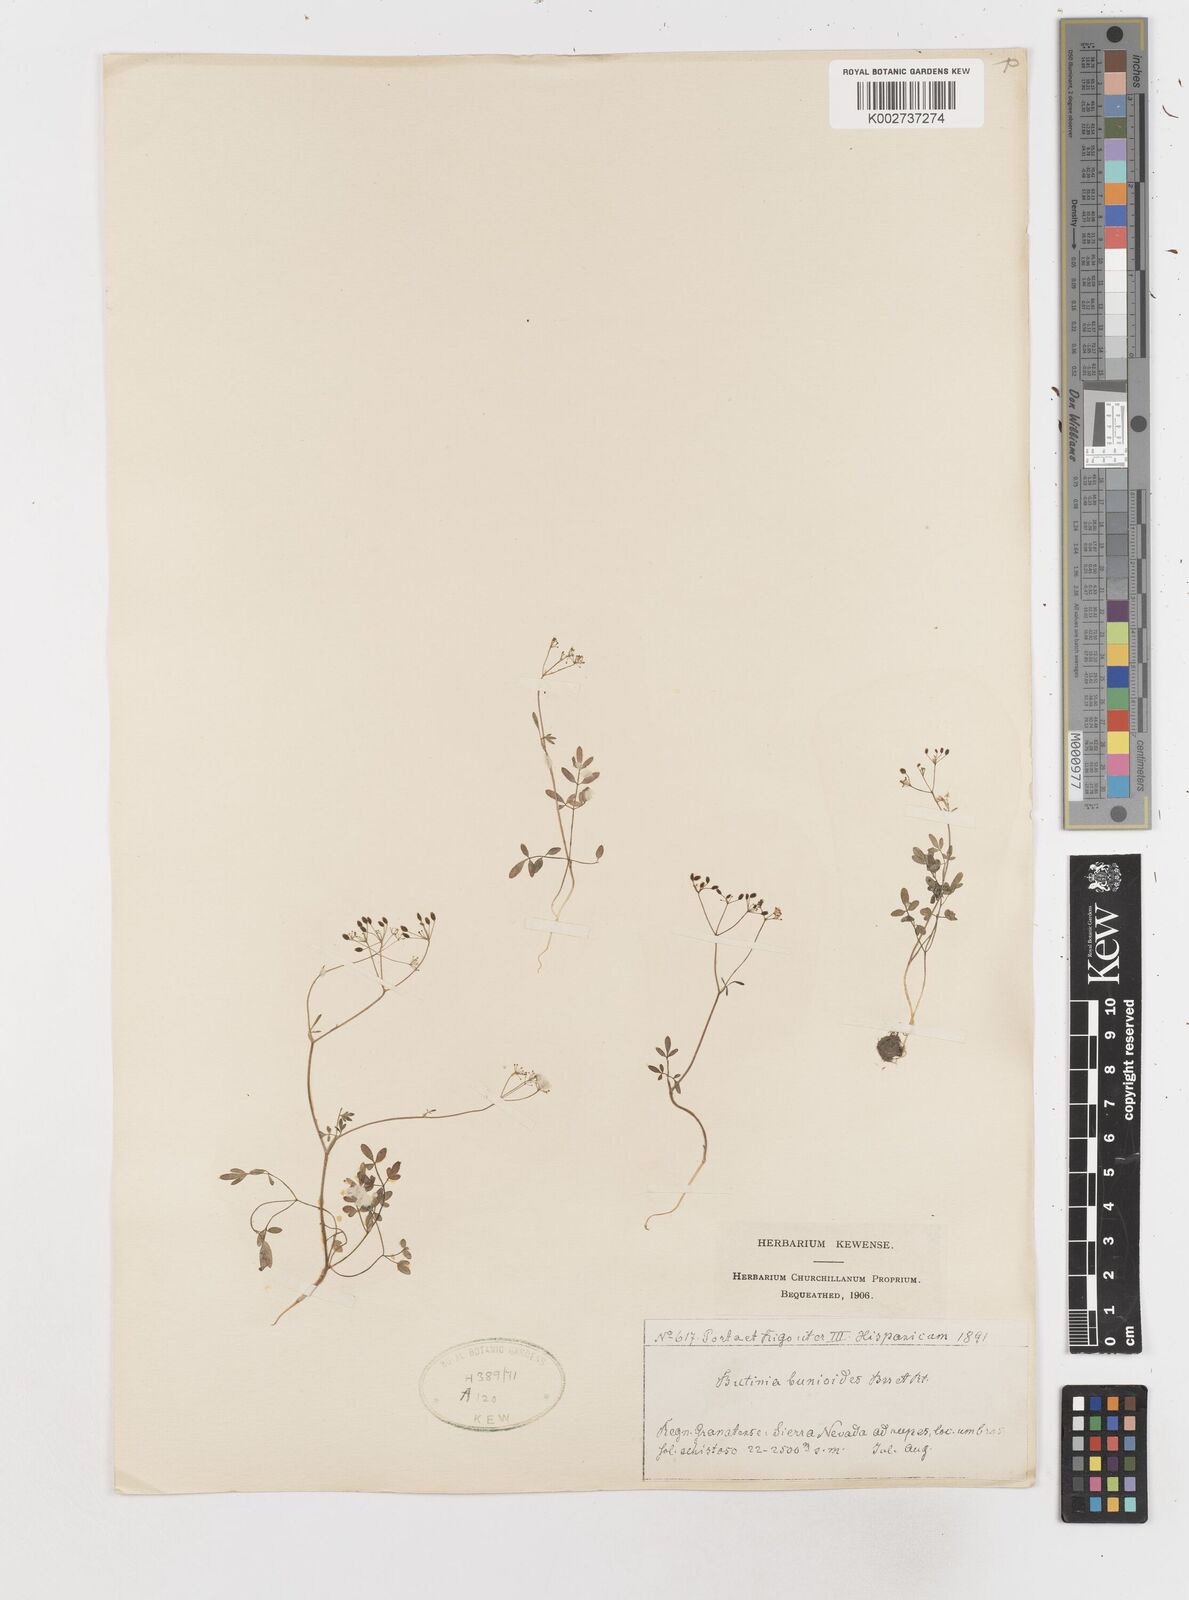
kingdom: Plantae
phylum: Tracheophyta
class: Magnoliopsida
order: Apiales
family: Apiaceae
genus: Conopodium
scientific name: Conopodium bunioides
